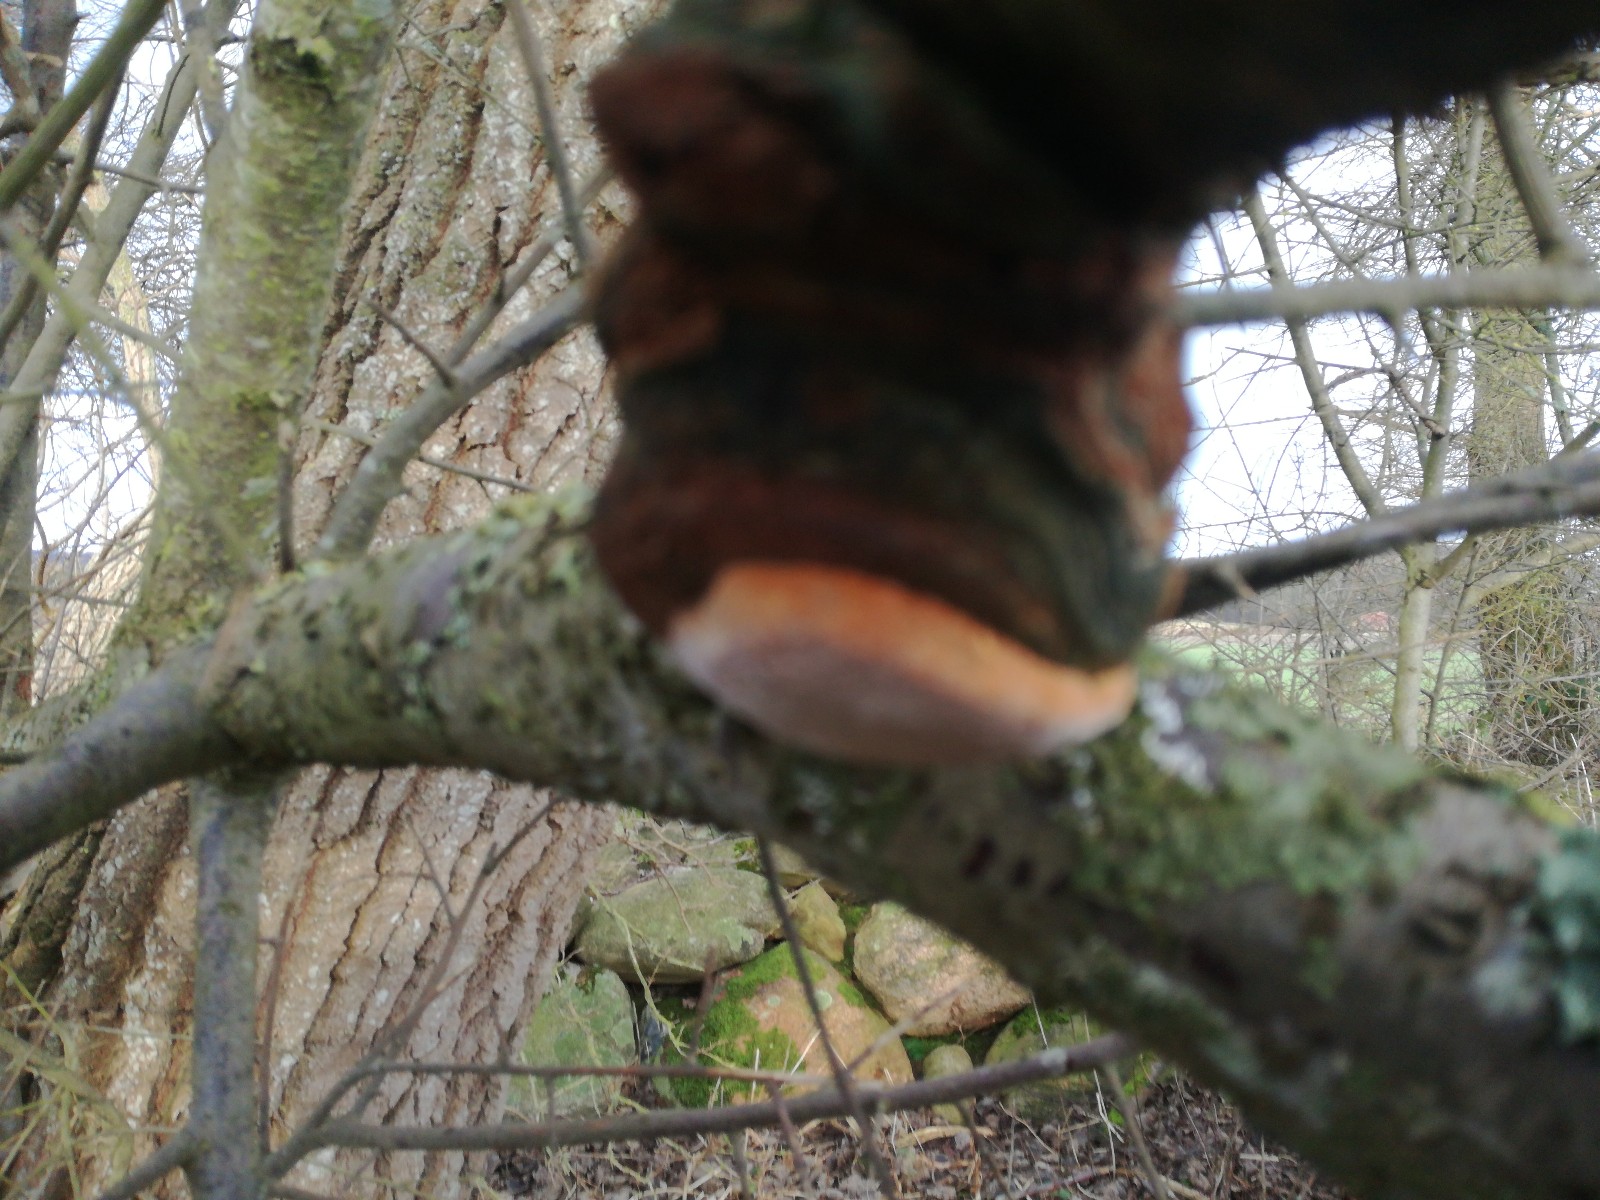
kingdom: Fungi
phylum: Basidiomycota
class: Agaricomycetes
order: Hymenochaetales
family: Hymenochaetaceae
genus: Phellinus
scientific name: Phellinus pomaceus
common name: blomme-ildporesvamp
